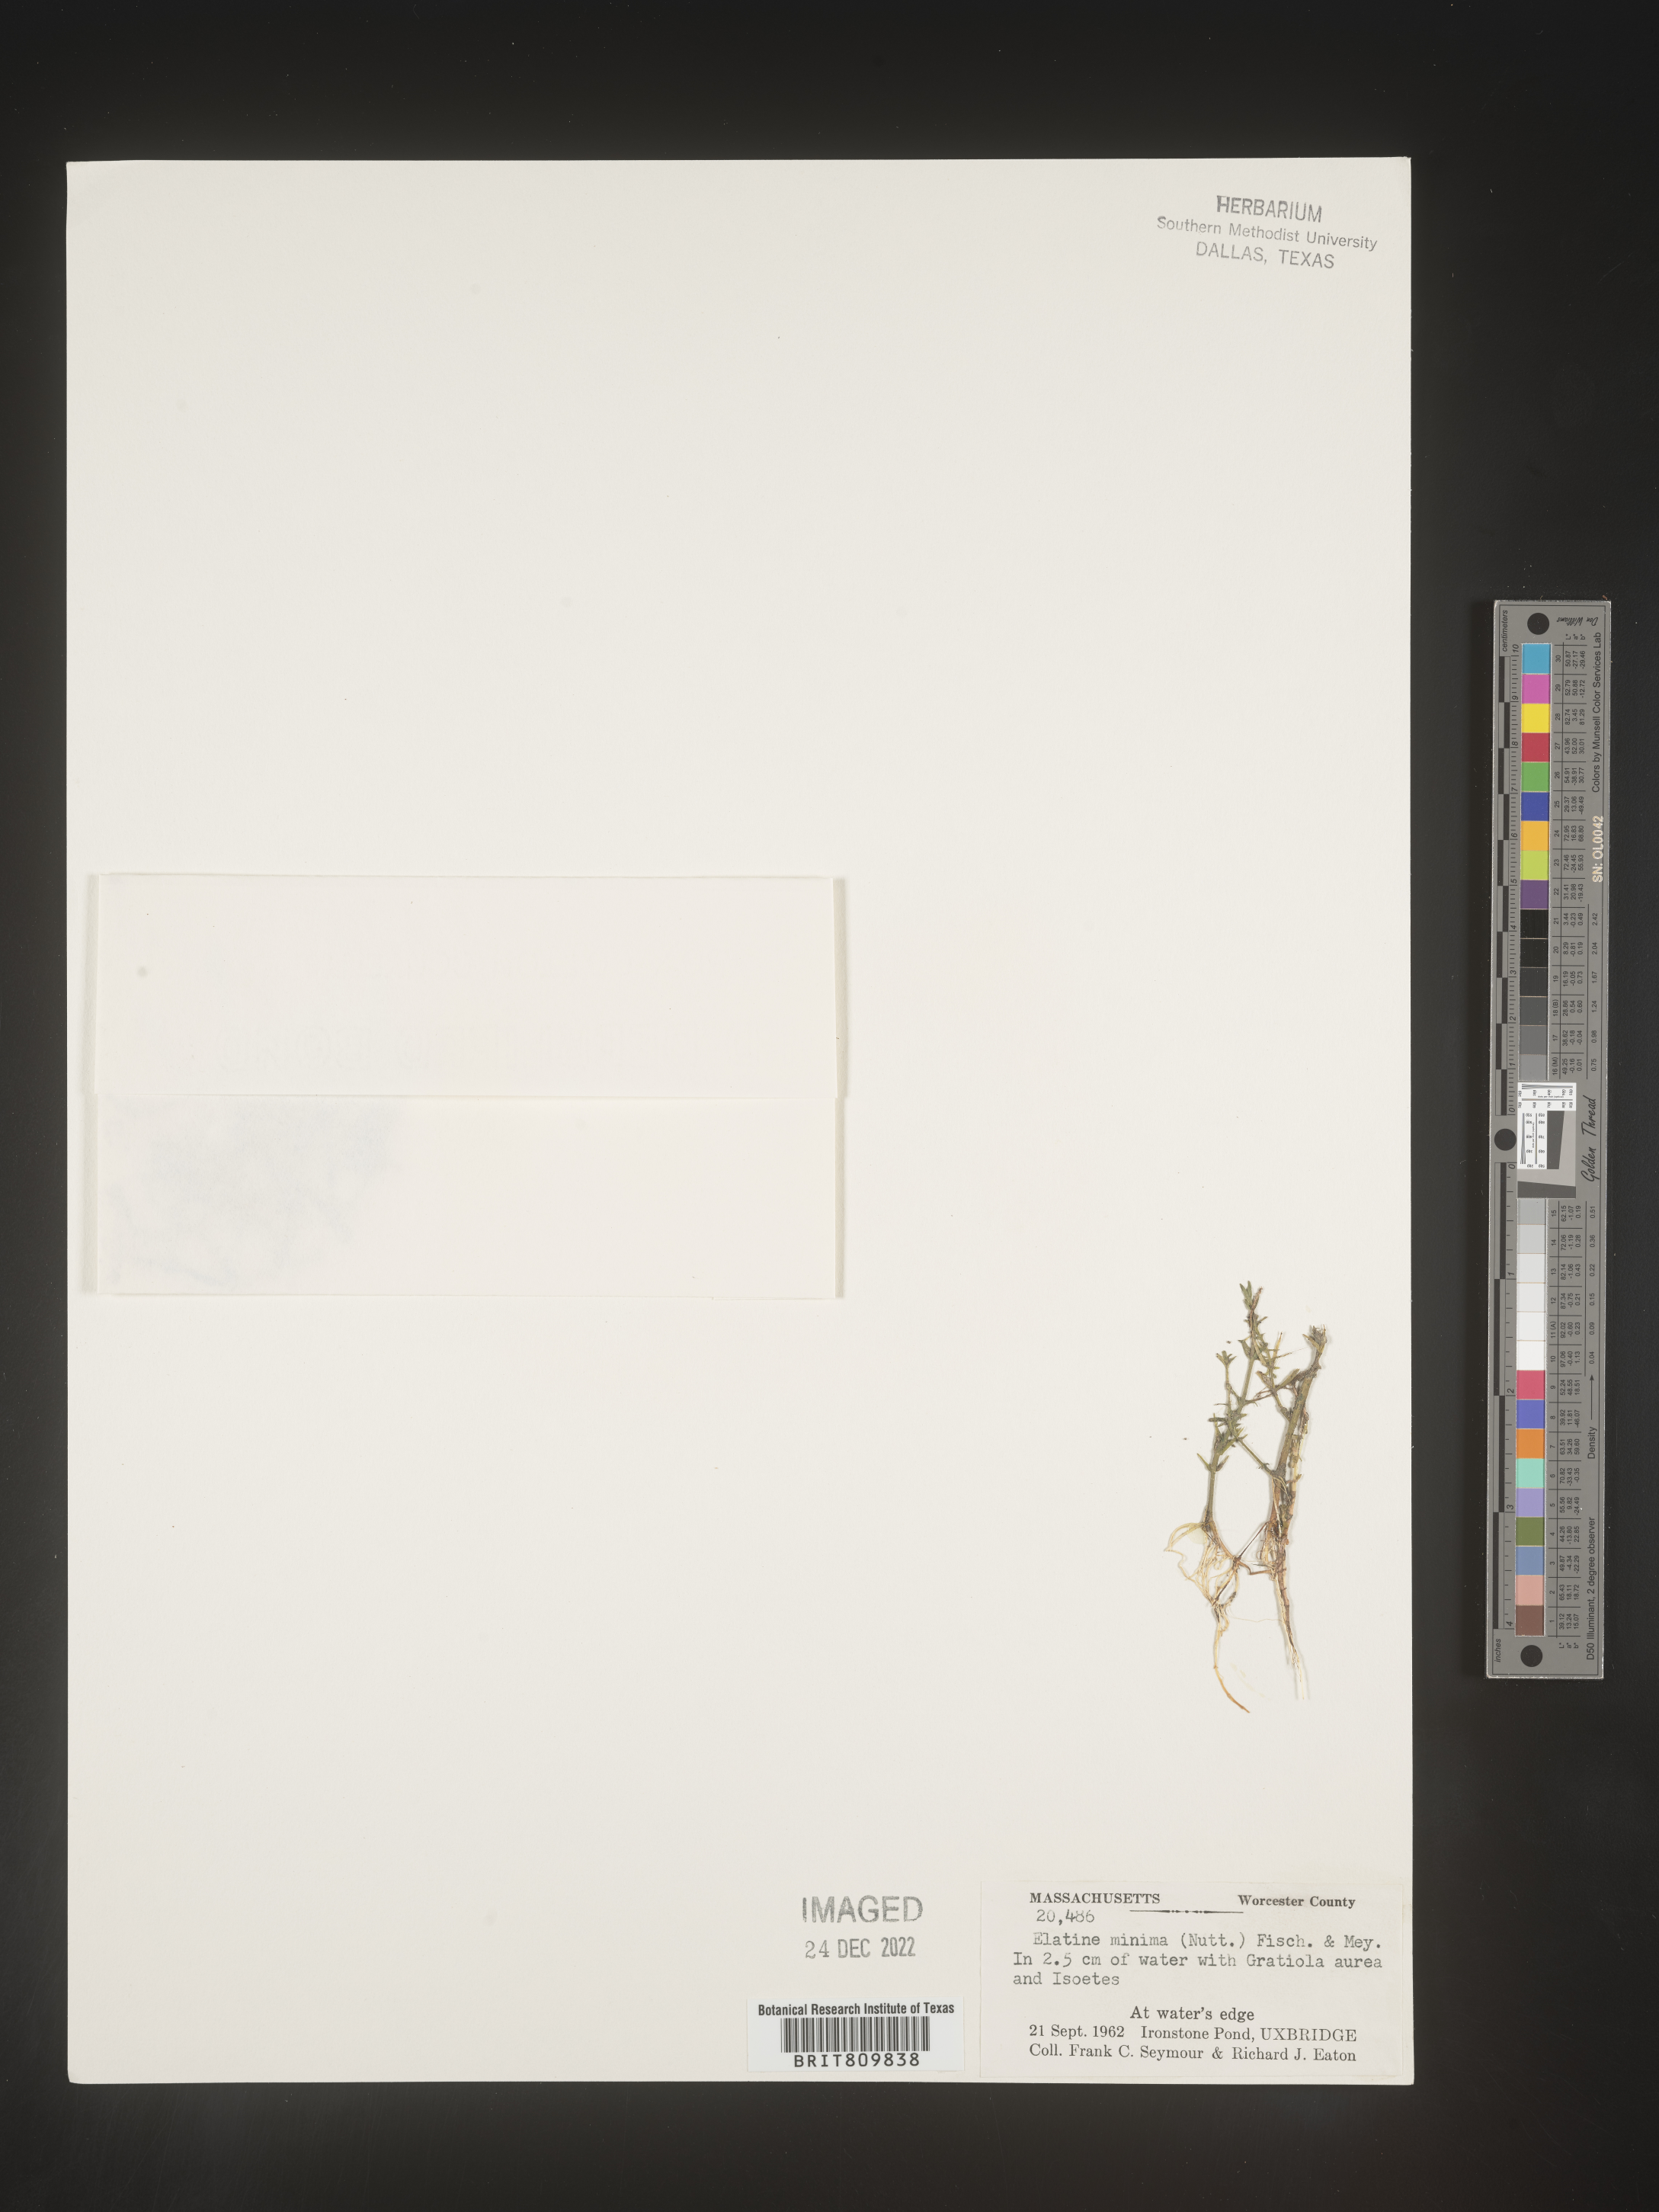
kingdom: Plantae
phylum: Tracheophyta
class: Magnoliopsida
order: Malpighiales
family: Elatinaceae
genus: Elatine
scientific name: Elatine
